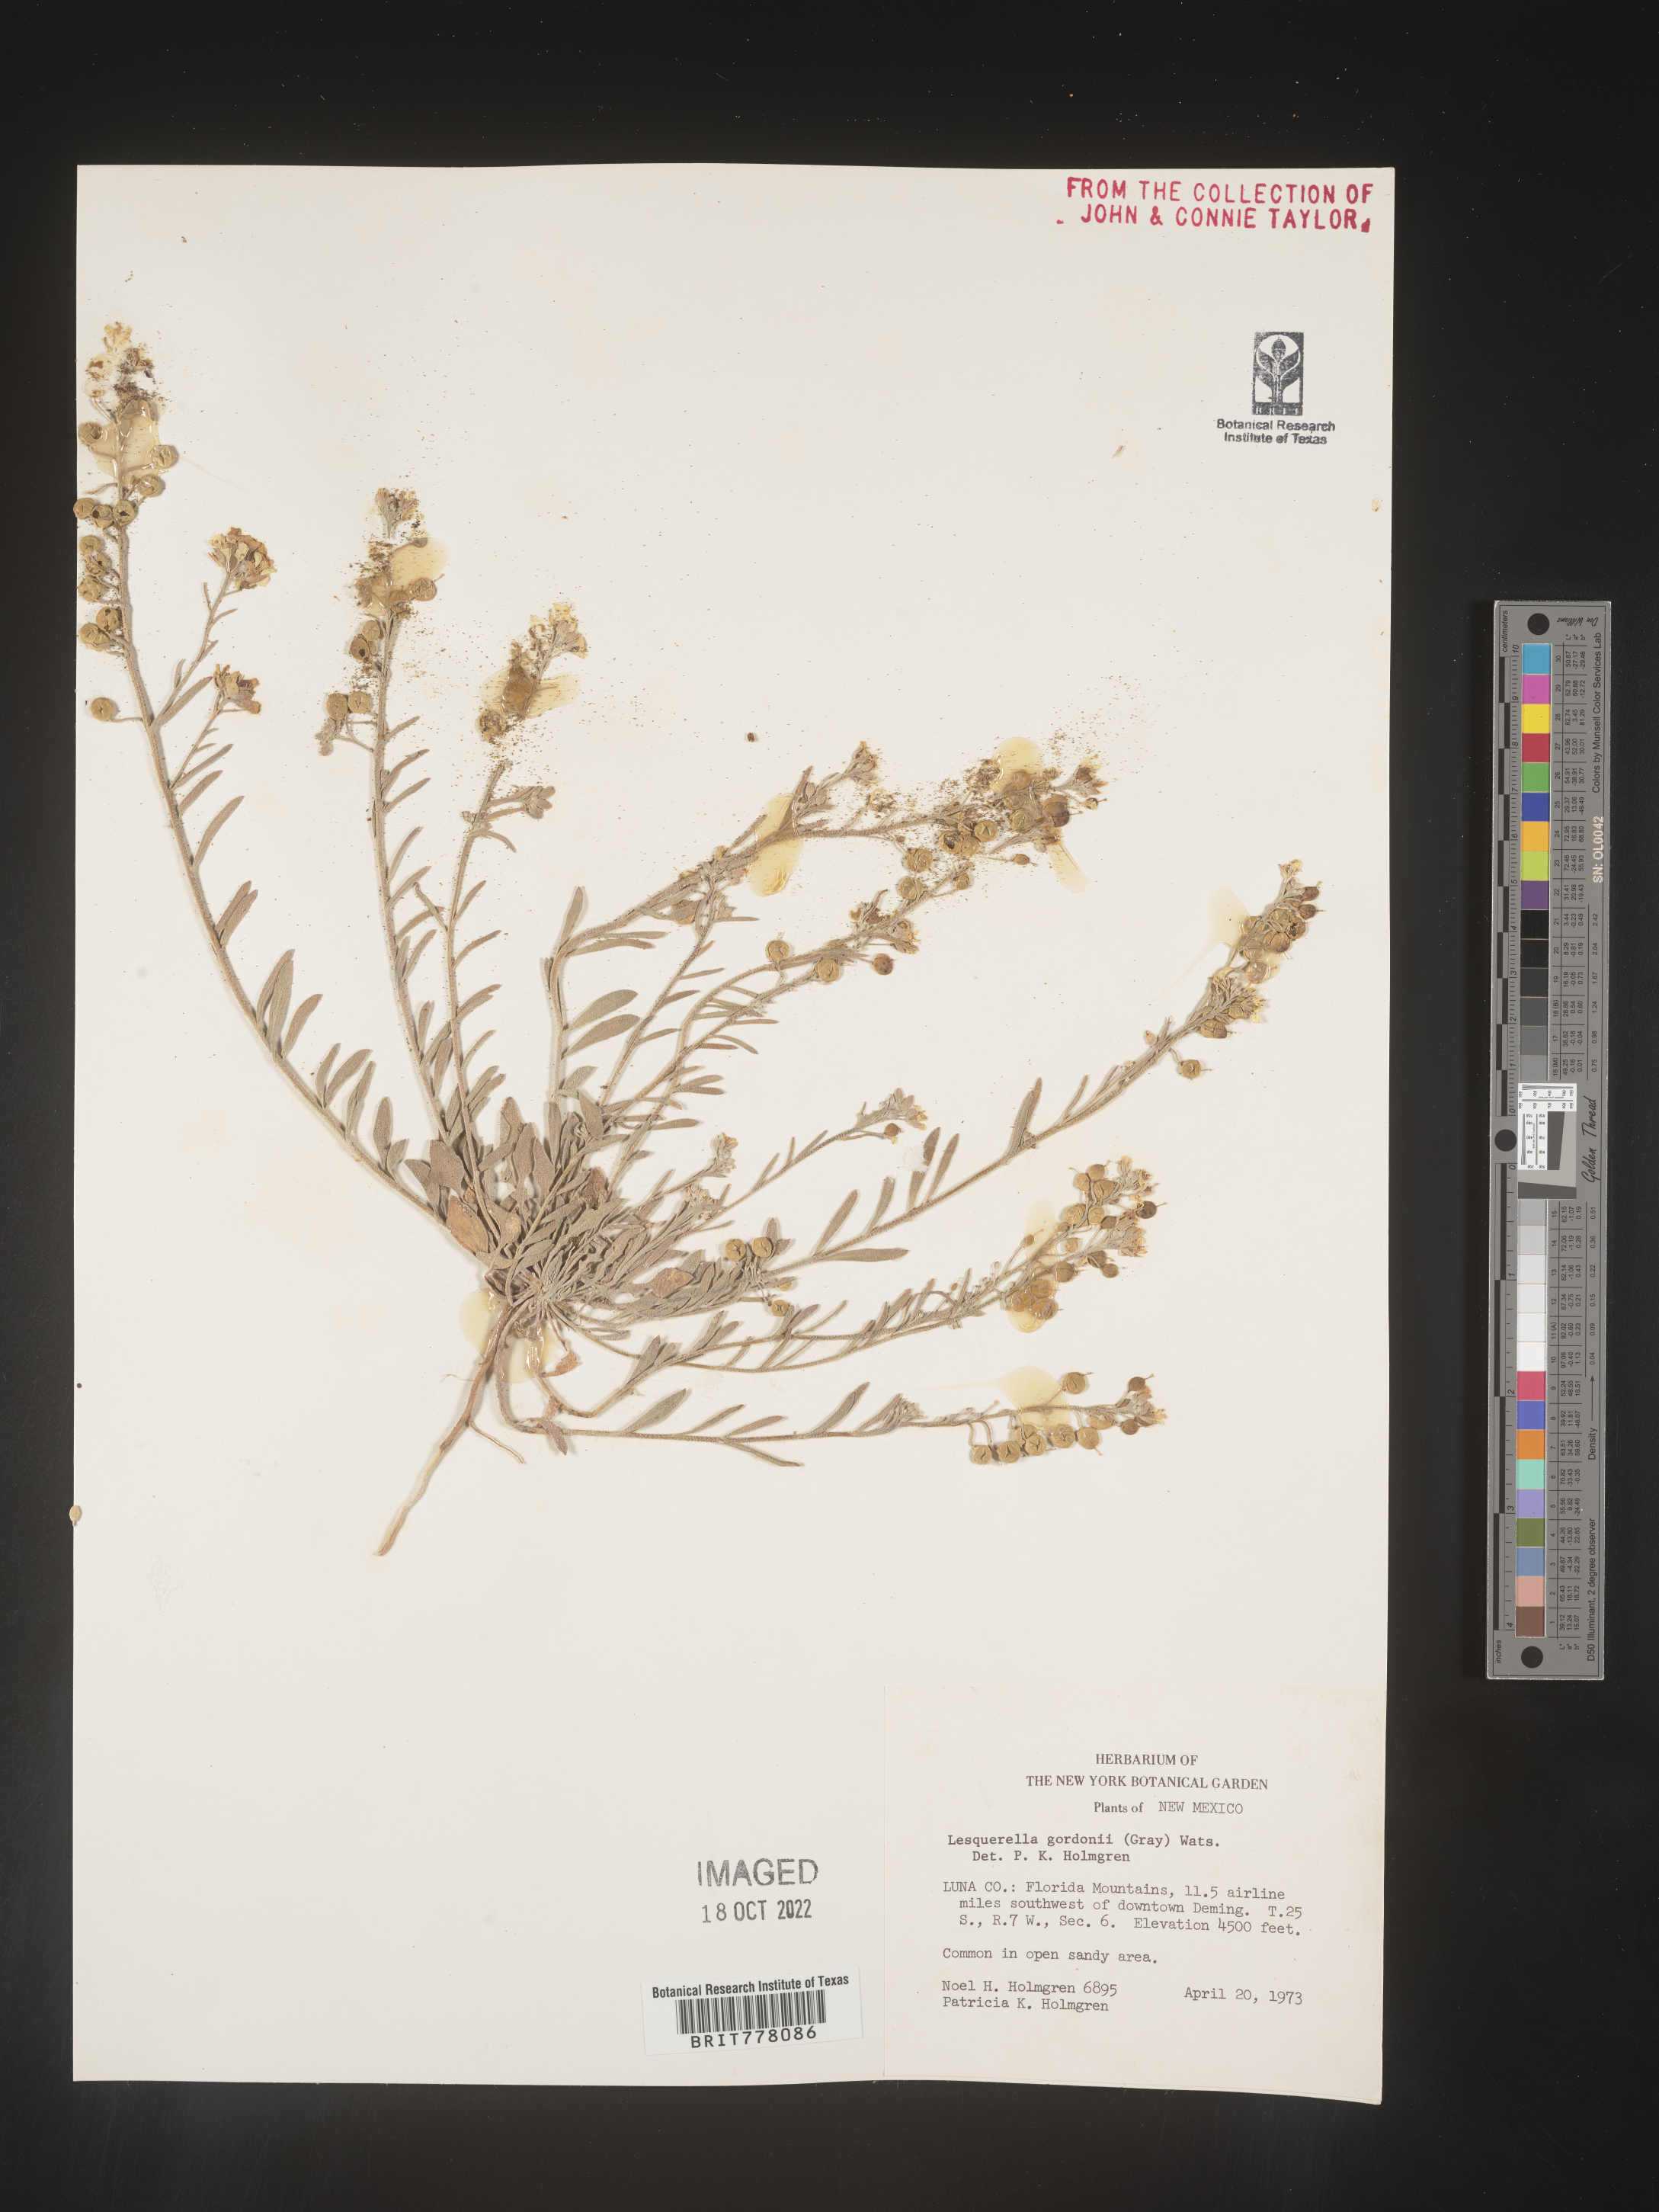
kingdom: Chromista
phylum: Cercozoa
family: Psammonobiotidae
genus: Lesquerella
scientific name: Lesquerella
